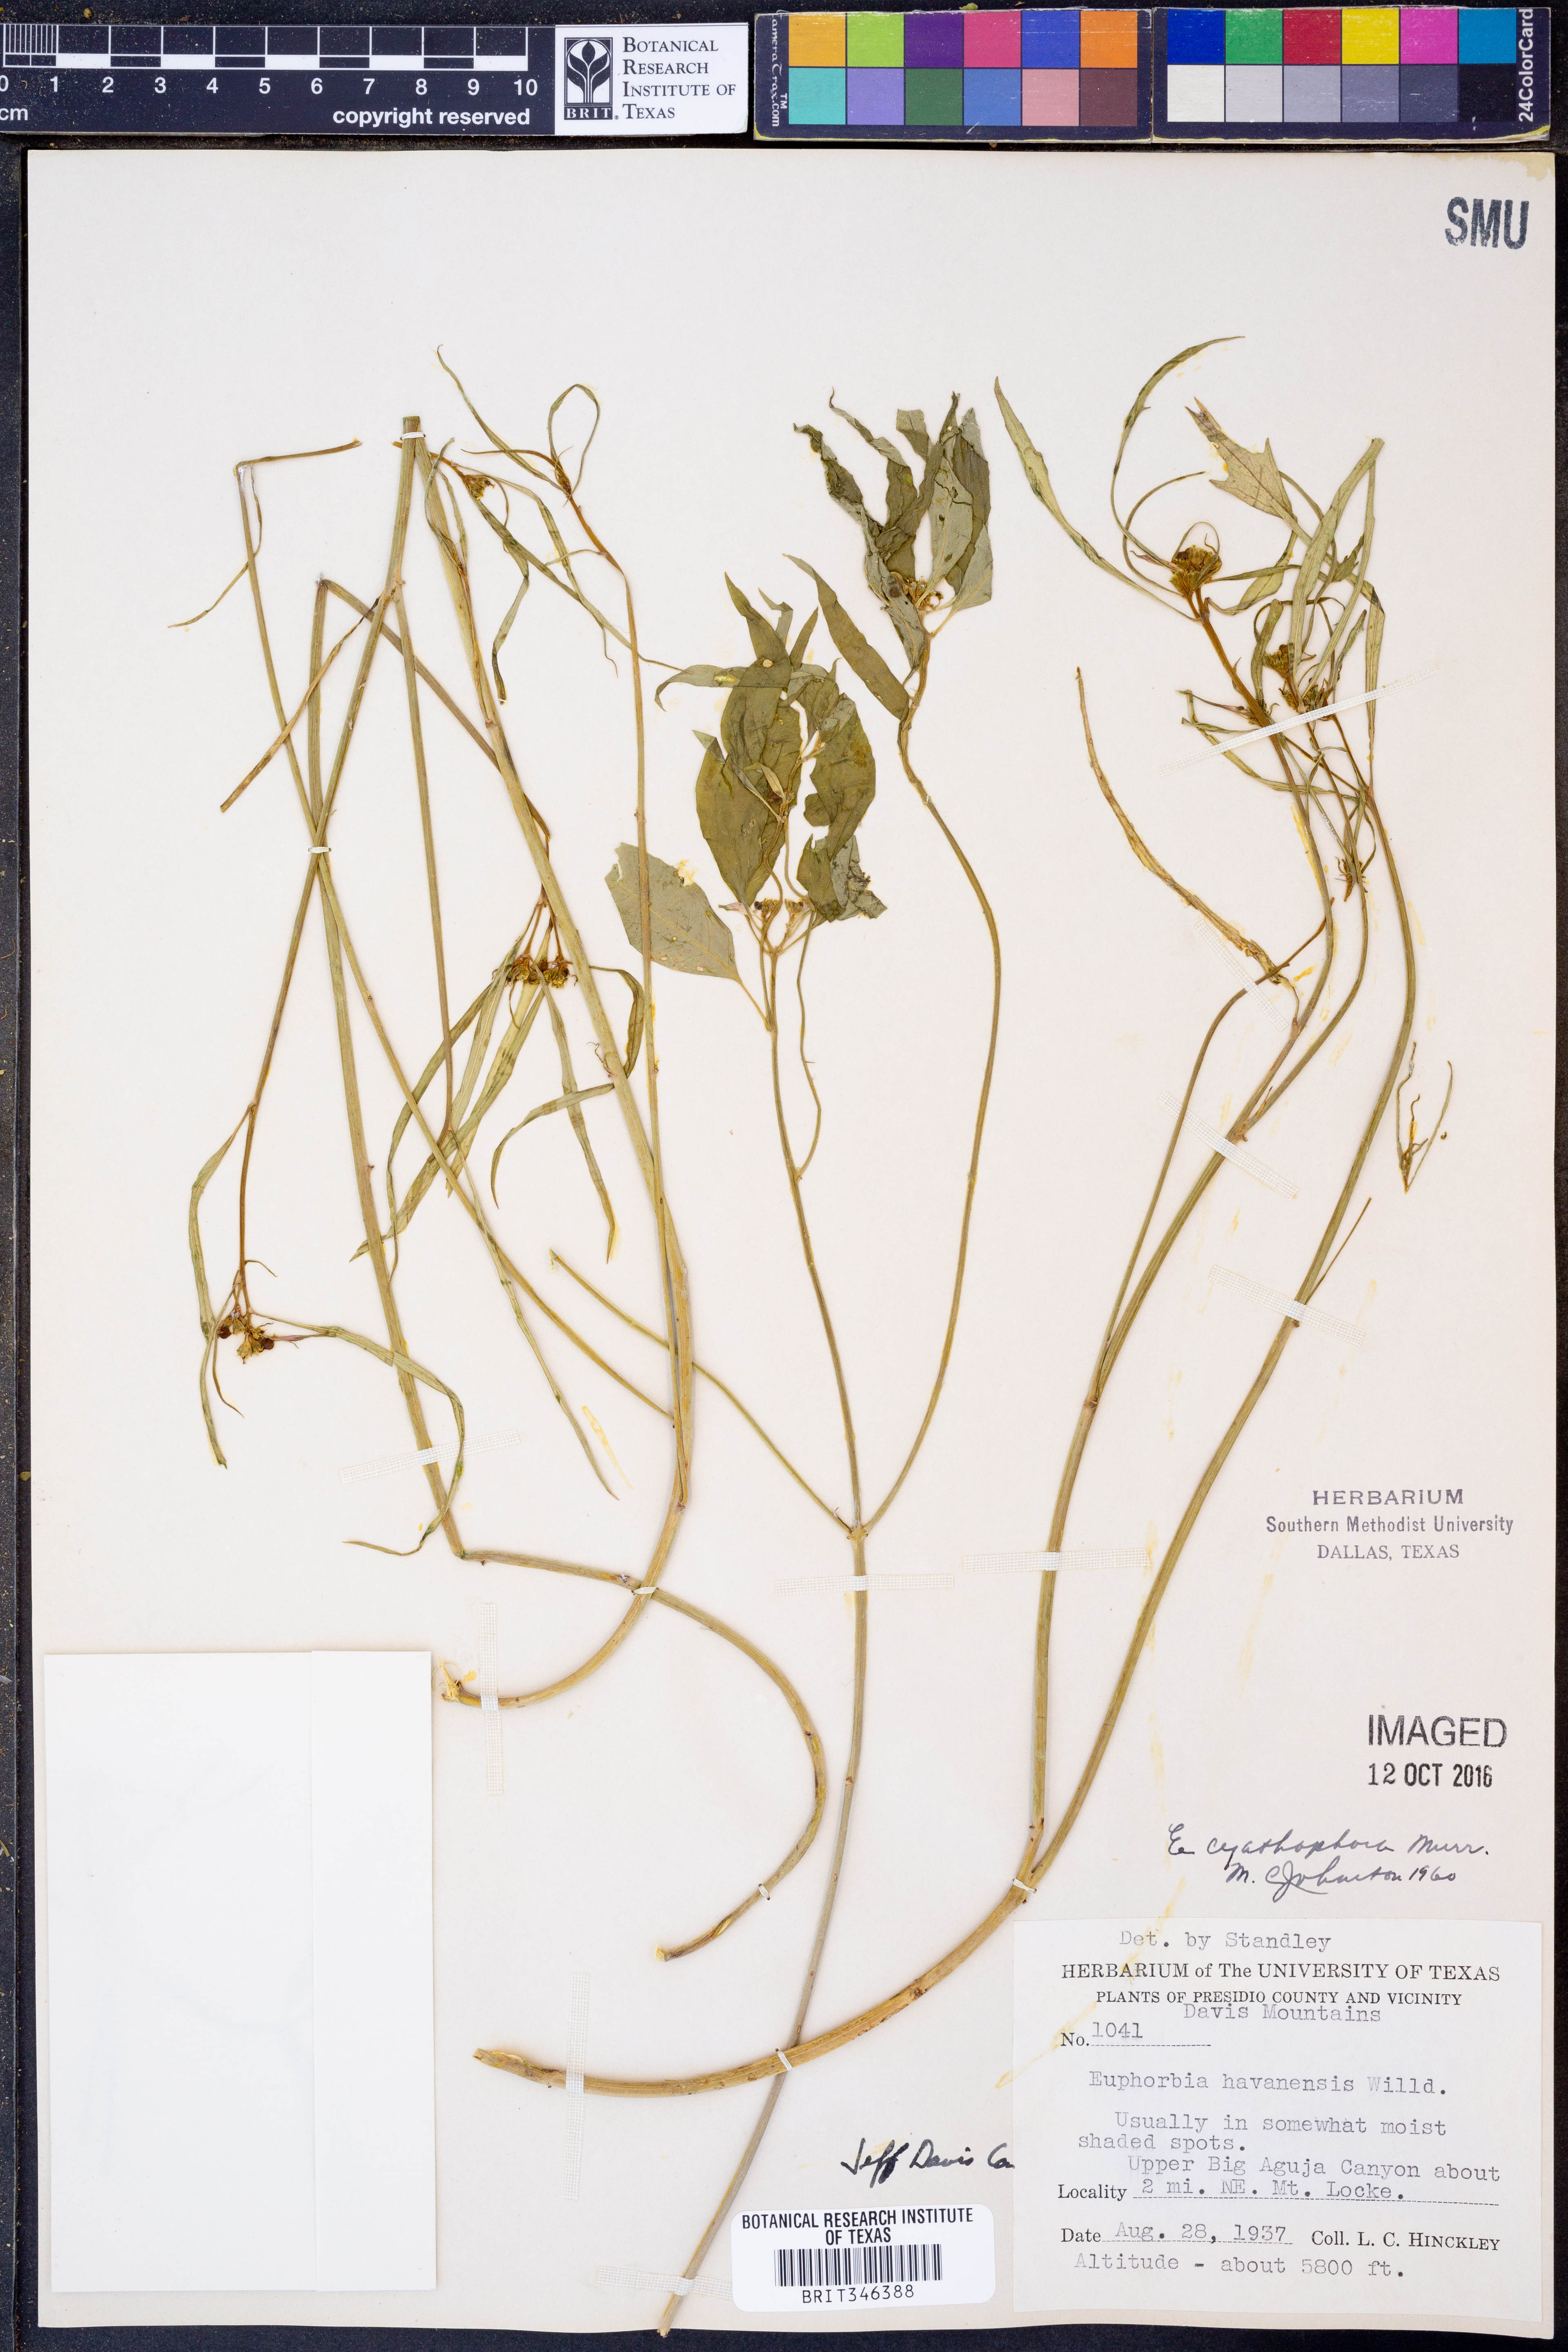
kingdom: Plantae
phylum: Tracheophyta
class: Magnoliopsida
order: Malpighiales
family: Euphorbiaceae
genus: Euphorbia
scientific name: Euphorbia heterophylla
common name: Mexican fireplant
